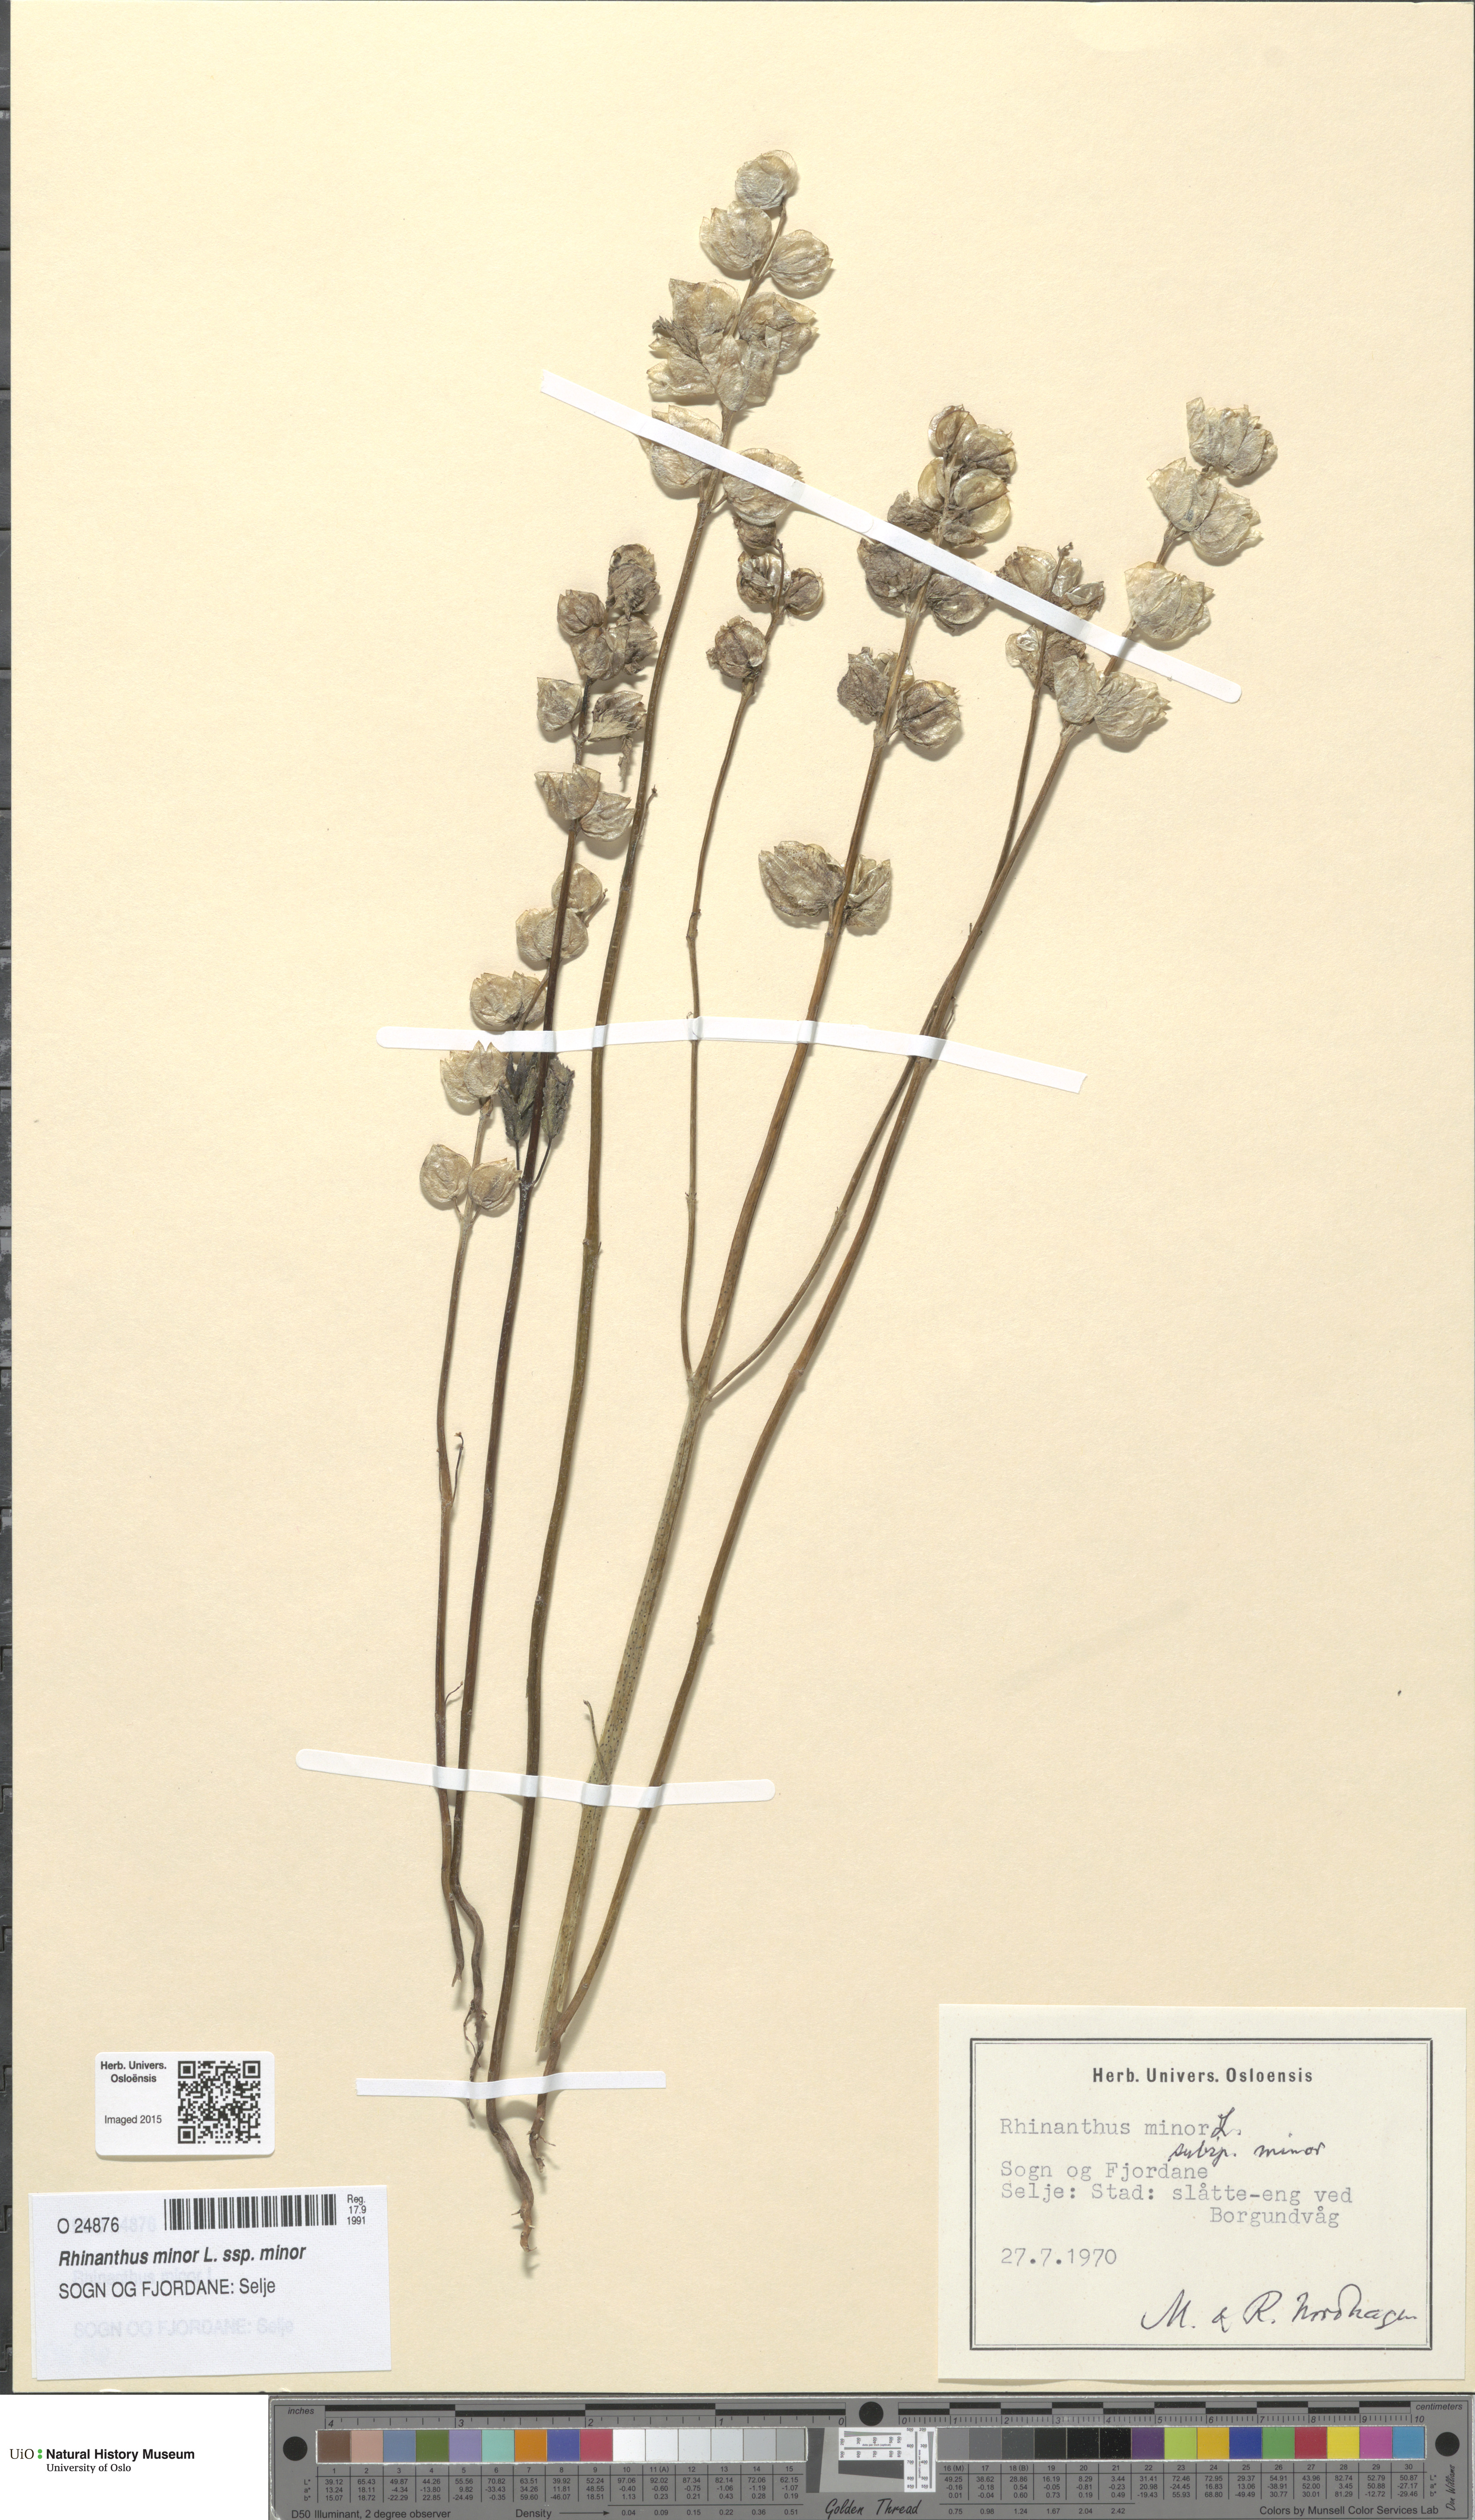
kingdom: Plantae
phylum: Tracheophyta
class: Magnoliopsida
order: Lamiales
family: Orobanchaceae
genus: Rhinanthus
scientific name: Rhinanthus minor
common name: Yellow-rattle
